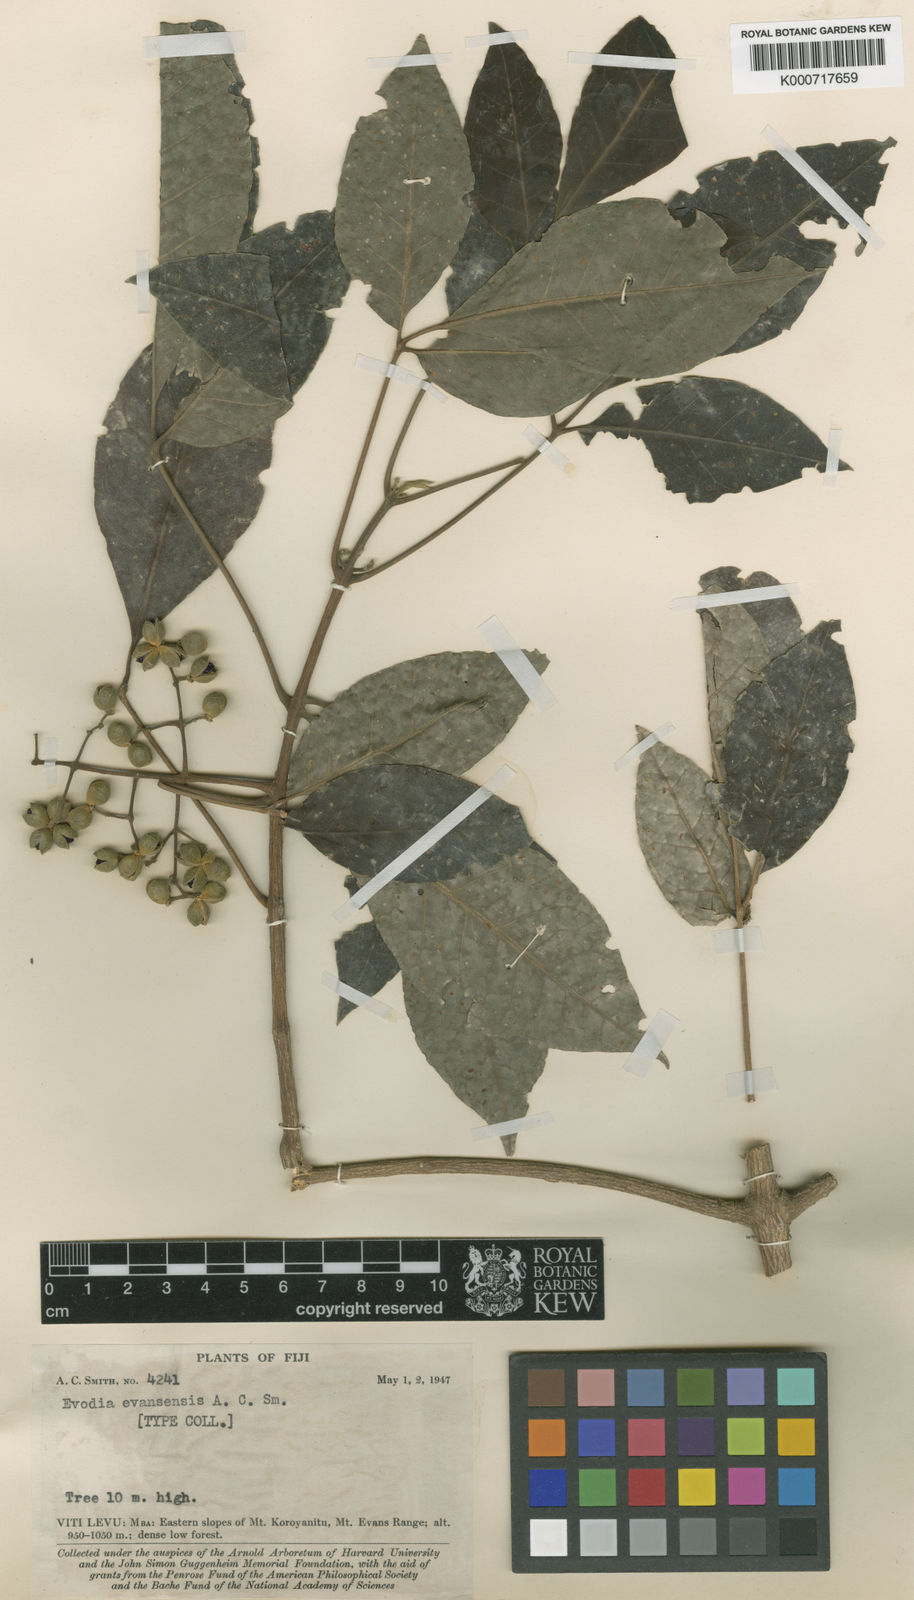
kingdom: Plantae
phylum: Tracheophyta
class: Magnoliopsida
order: Sapindales
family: Rutaceae
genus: Melicope
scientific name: Melicope evansensis
